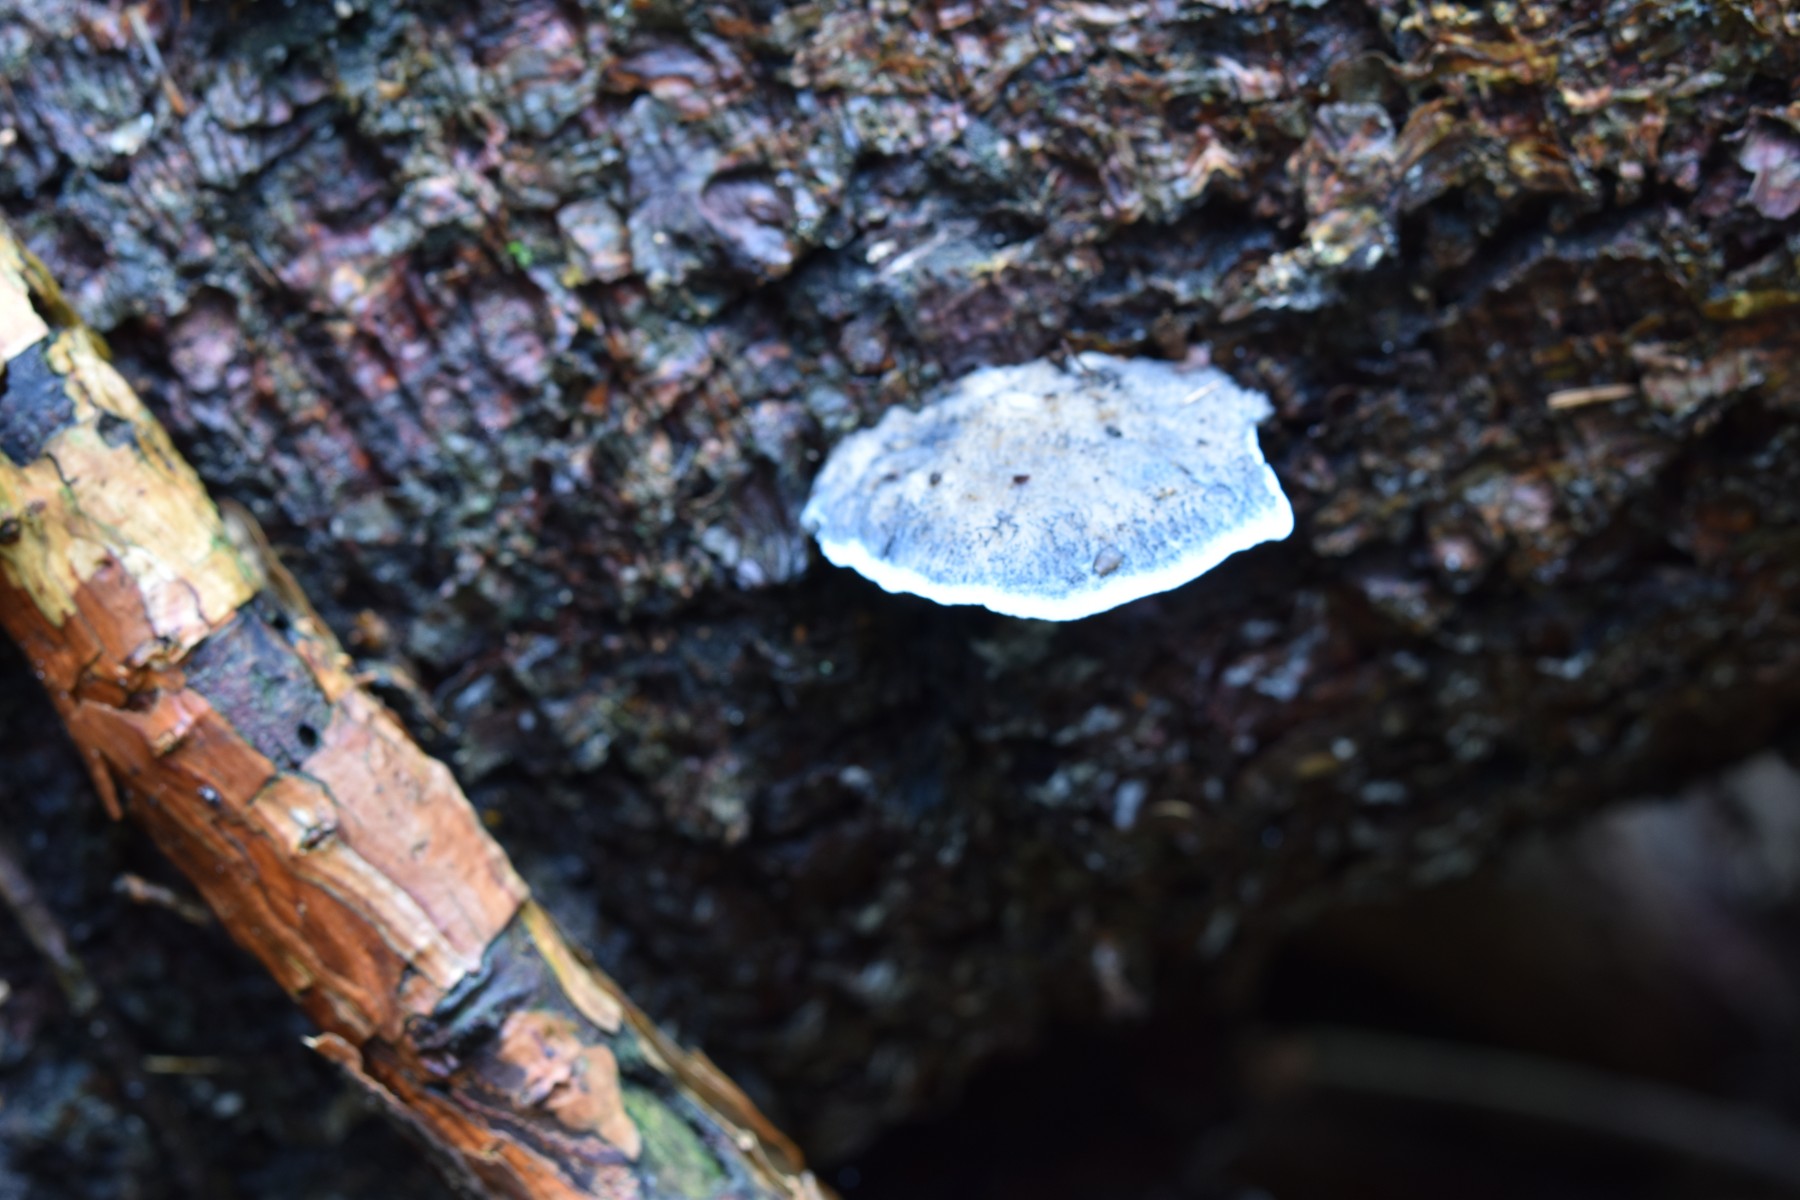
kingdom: Fungi
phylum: Basidiomycota
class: Agaricomycetes
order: Polyporales
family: Polyporaceae
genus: Cyanosporus
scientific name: Cyanosporus caesius
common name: blålig kødporesvamp
